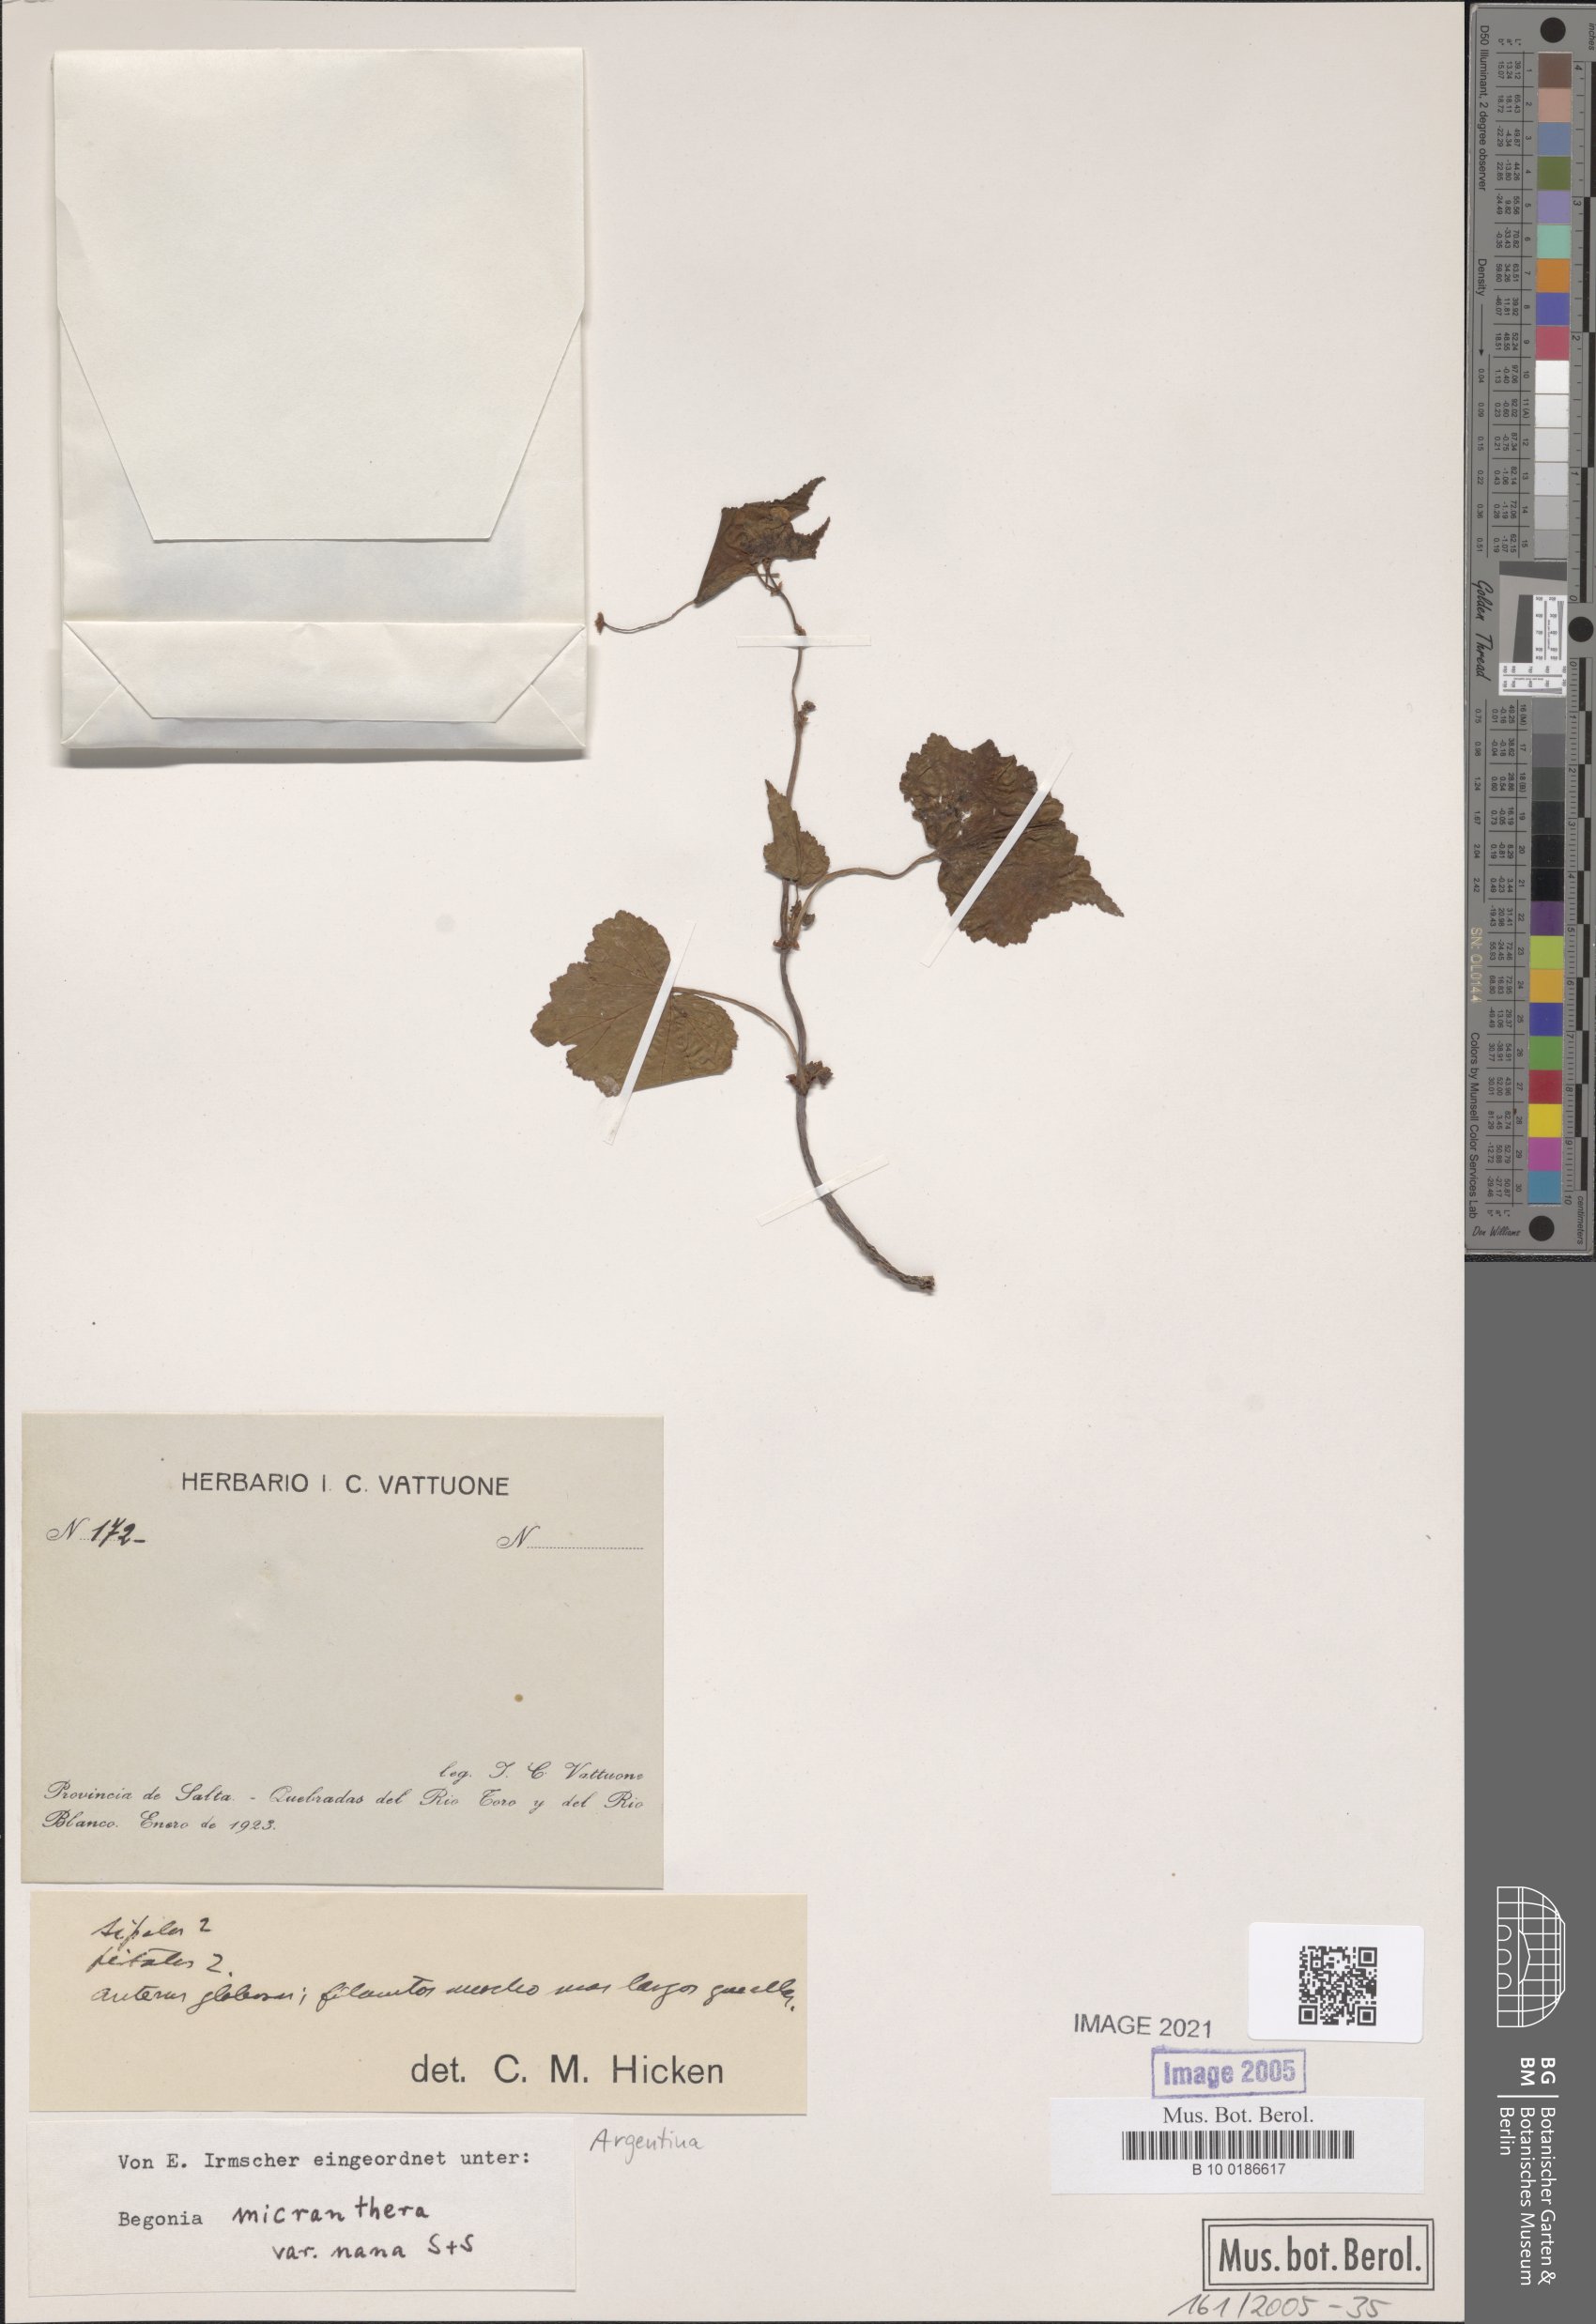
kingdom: Plantae
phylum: Tracheophyta
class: Magnoliopsida
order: Cucurbitales
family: Begoniaceae
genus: Begonia
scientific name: Begonia micranthera
